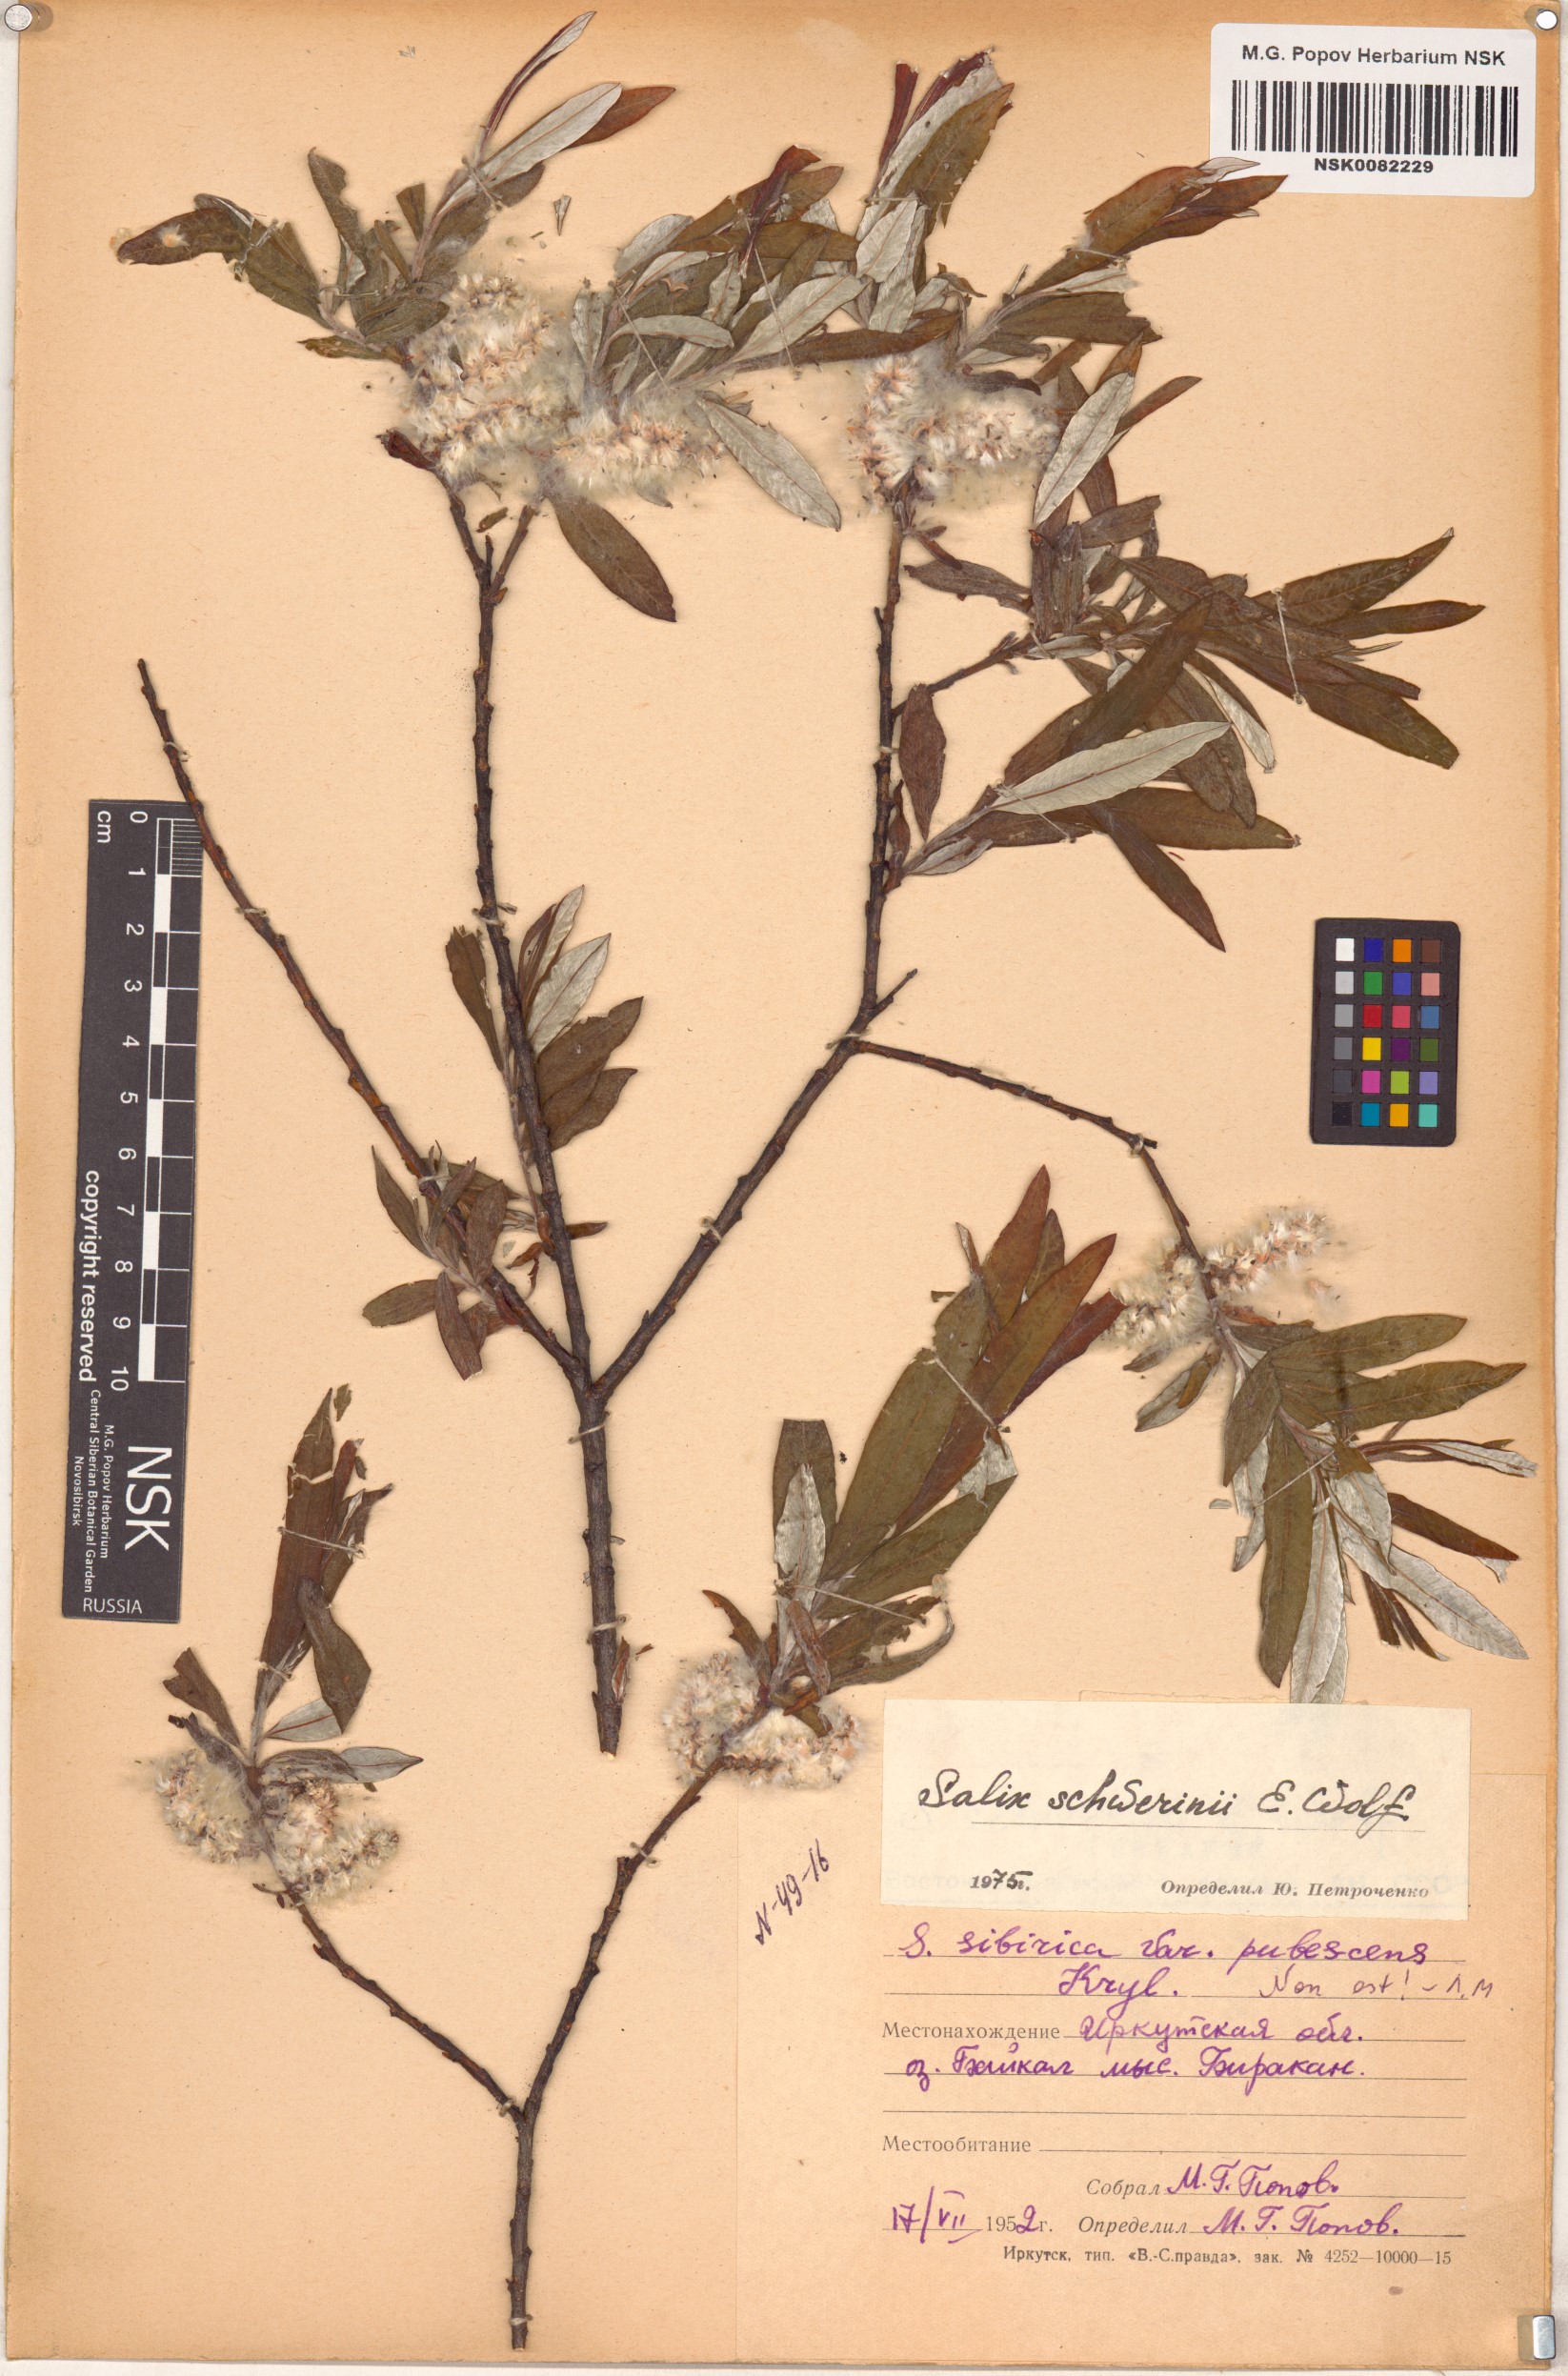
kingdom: Plantae
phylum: Tracheophyta
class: Magnoliopsida
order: Malpighiales
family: Salicaceae
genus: Salix
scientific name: Salix schwerinii
